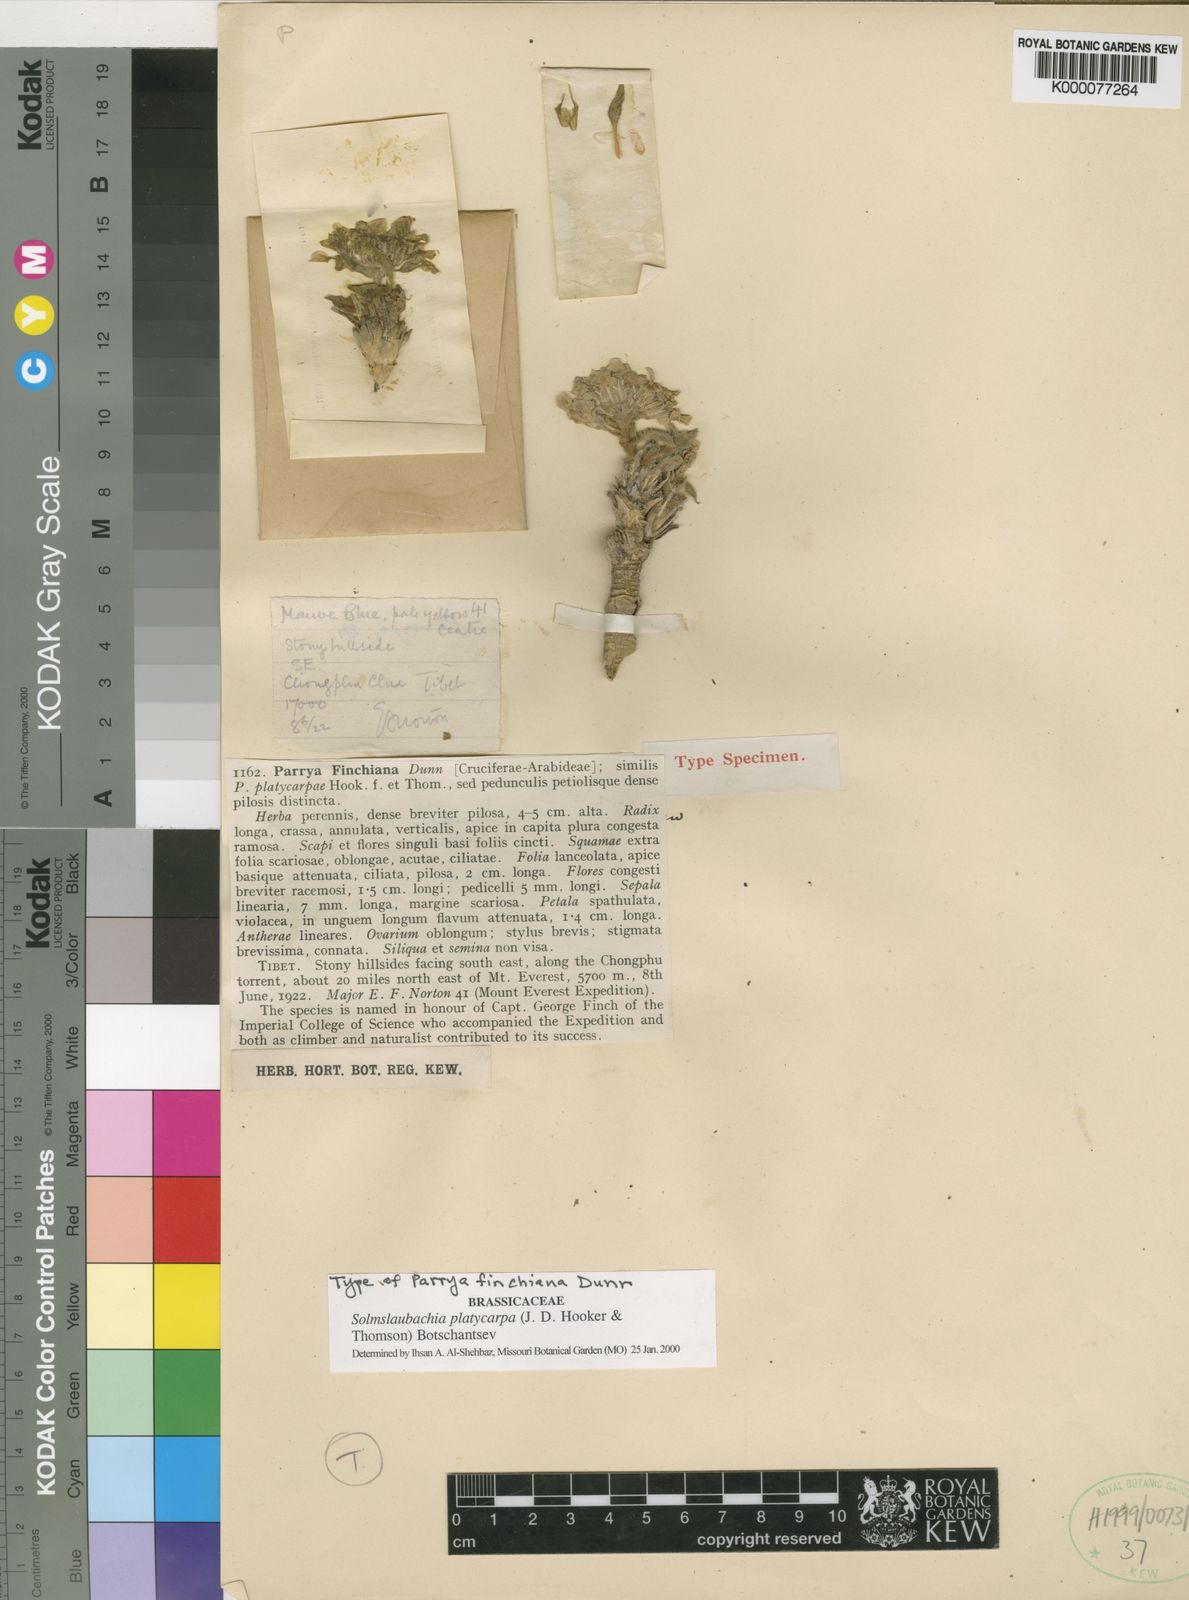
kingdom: Plantae
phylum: Tracheophyta
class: Magnoliopsida
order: Brassicales
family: Brassicaceae
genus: Solms-laubachia
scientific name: Solms-laubachia platycarpa
